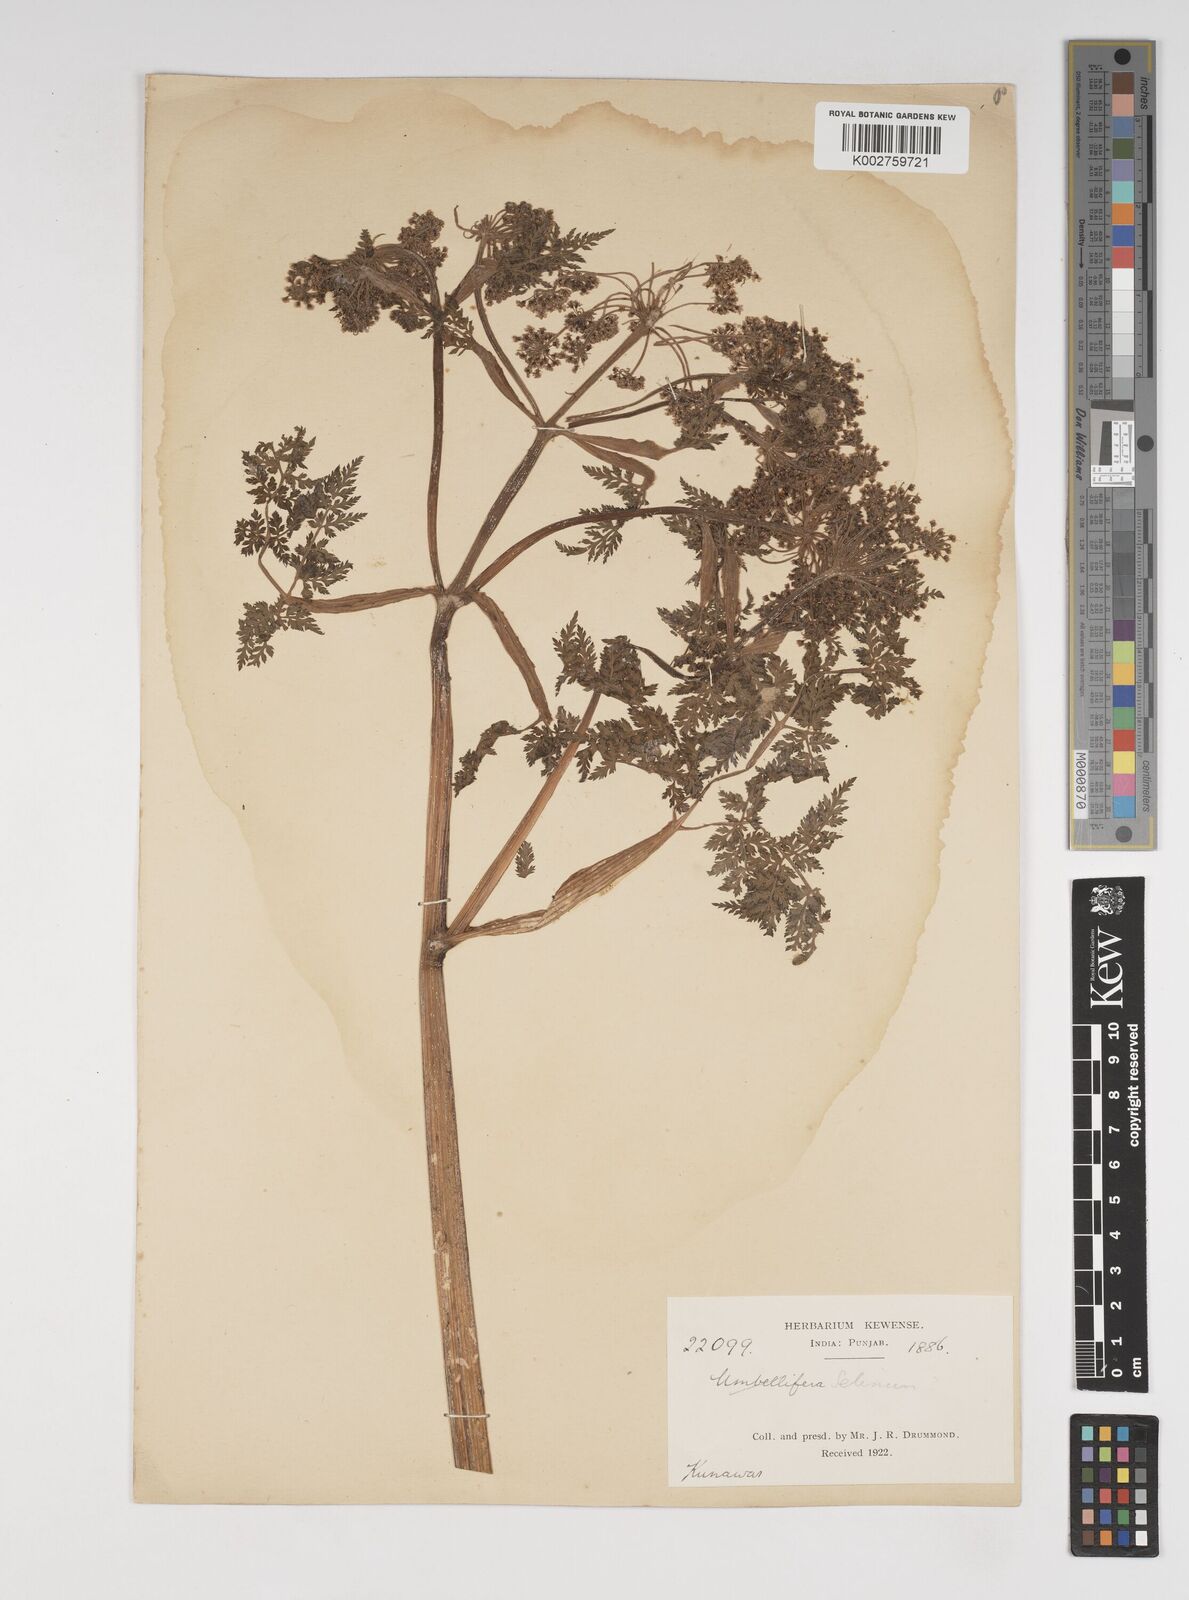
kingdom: Plantae
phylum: Tracheophyta
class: Magnoliopsida
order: Apiales
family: Apiaceae
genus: Selinum
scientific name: Selinum
